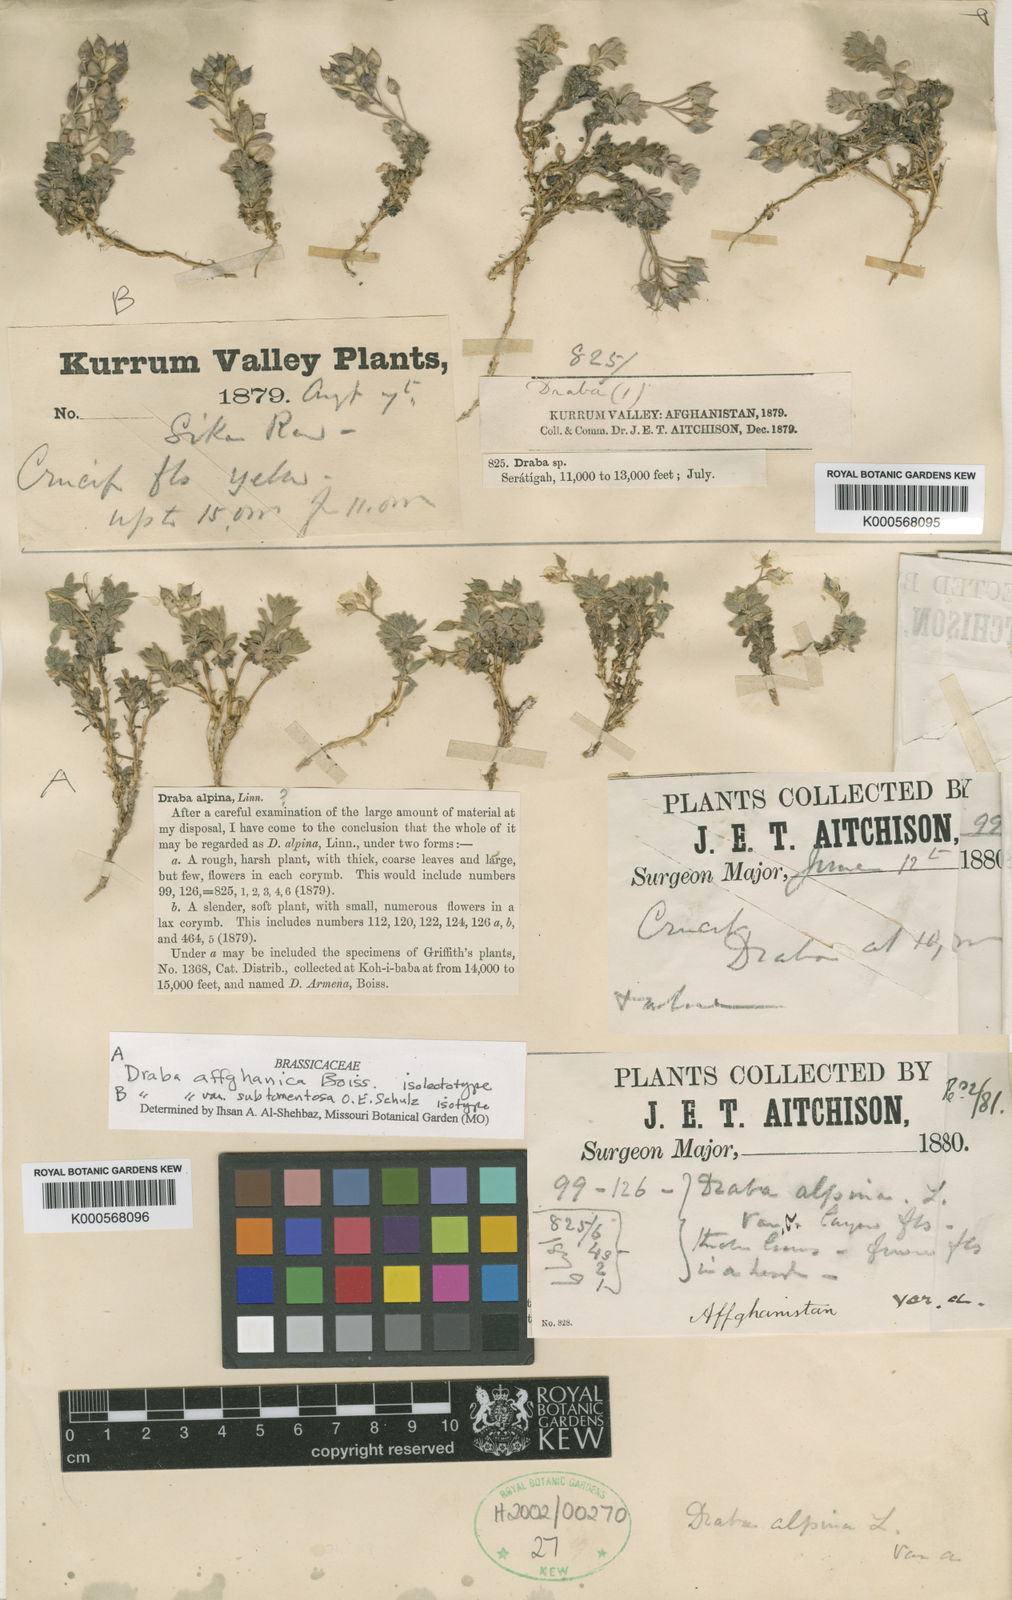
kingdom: Plantae
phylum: Tracheophyta
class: Magnoliopsida
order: Brassicales
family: Brassicaceae
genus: Draba
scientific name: Draba affghanica
